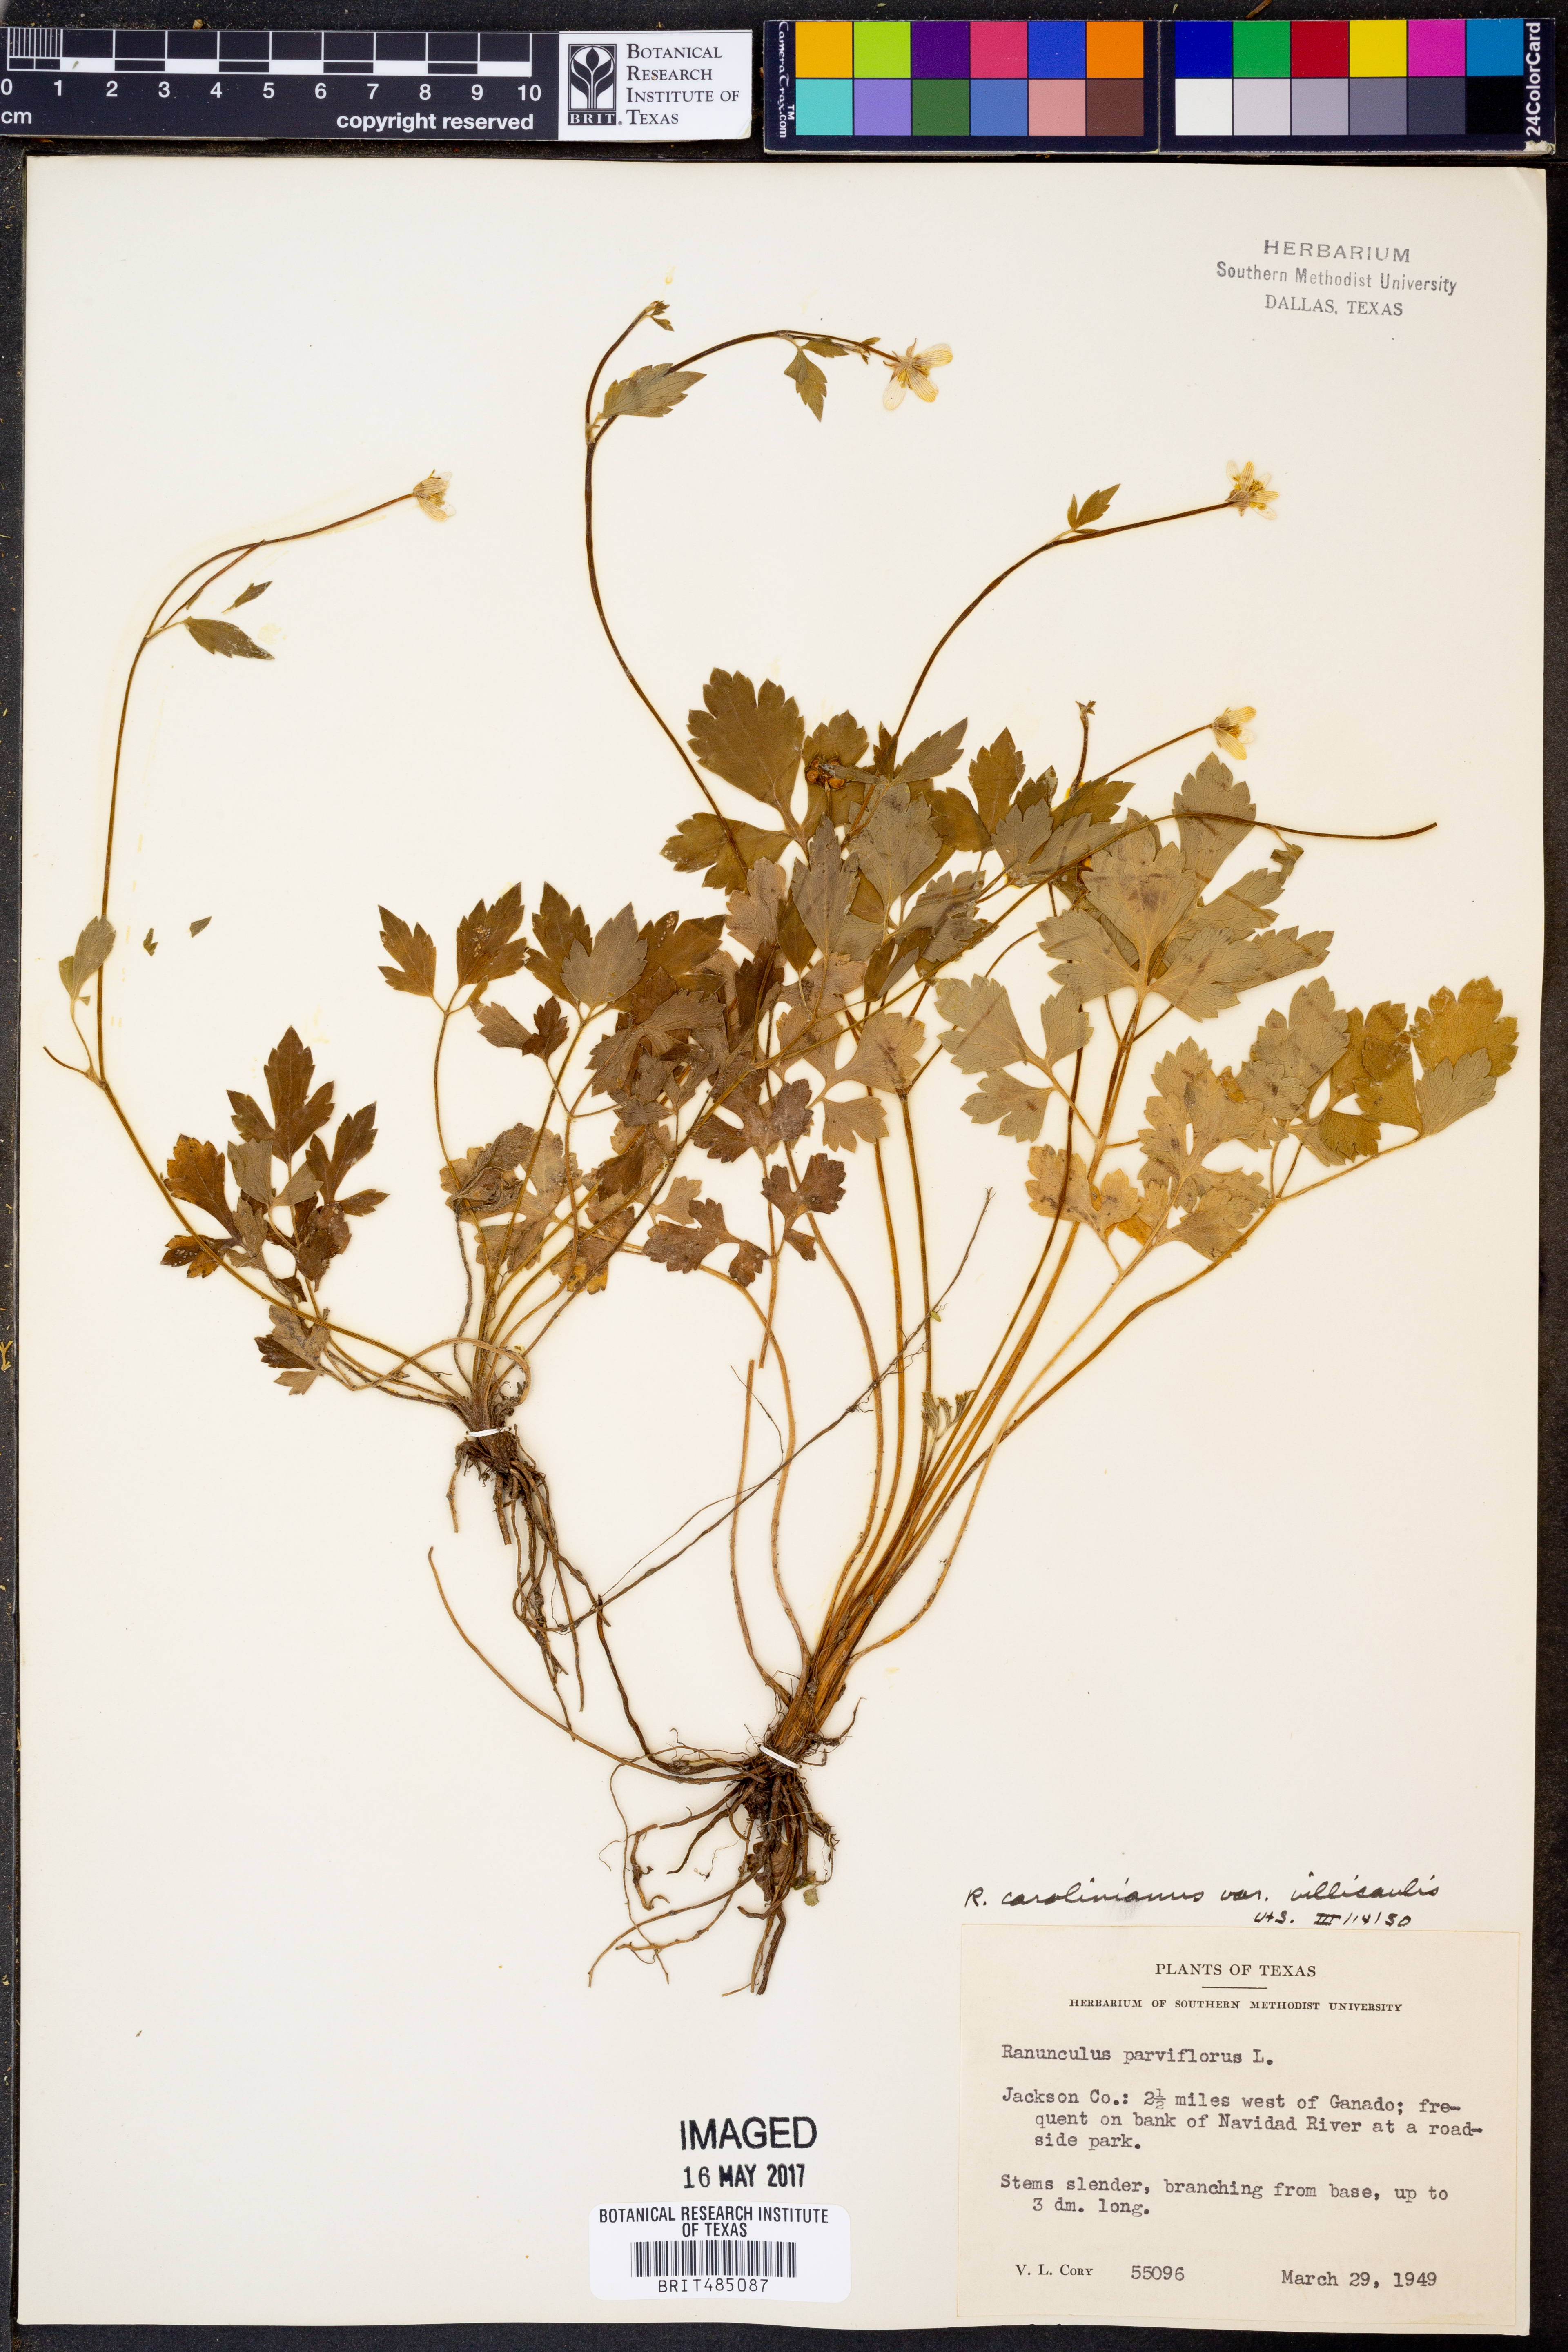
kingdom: Plantae
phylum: Tracheophyta
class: Magnoliopsida
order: Ranunculales
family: Ranunculaceae
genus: Ranunculus
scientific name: Ranunculus parviflorus
